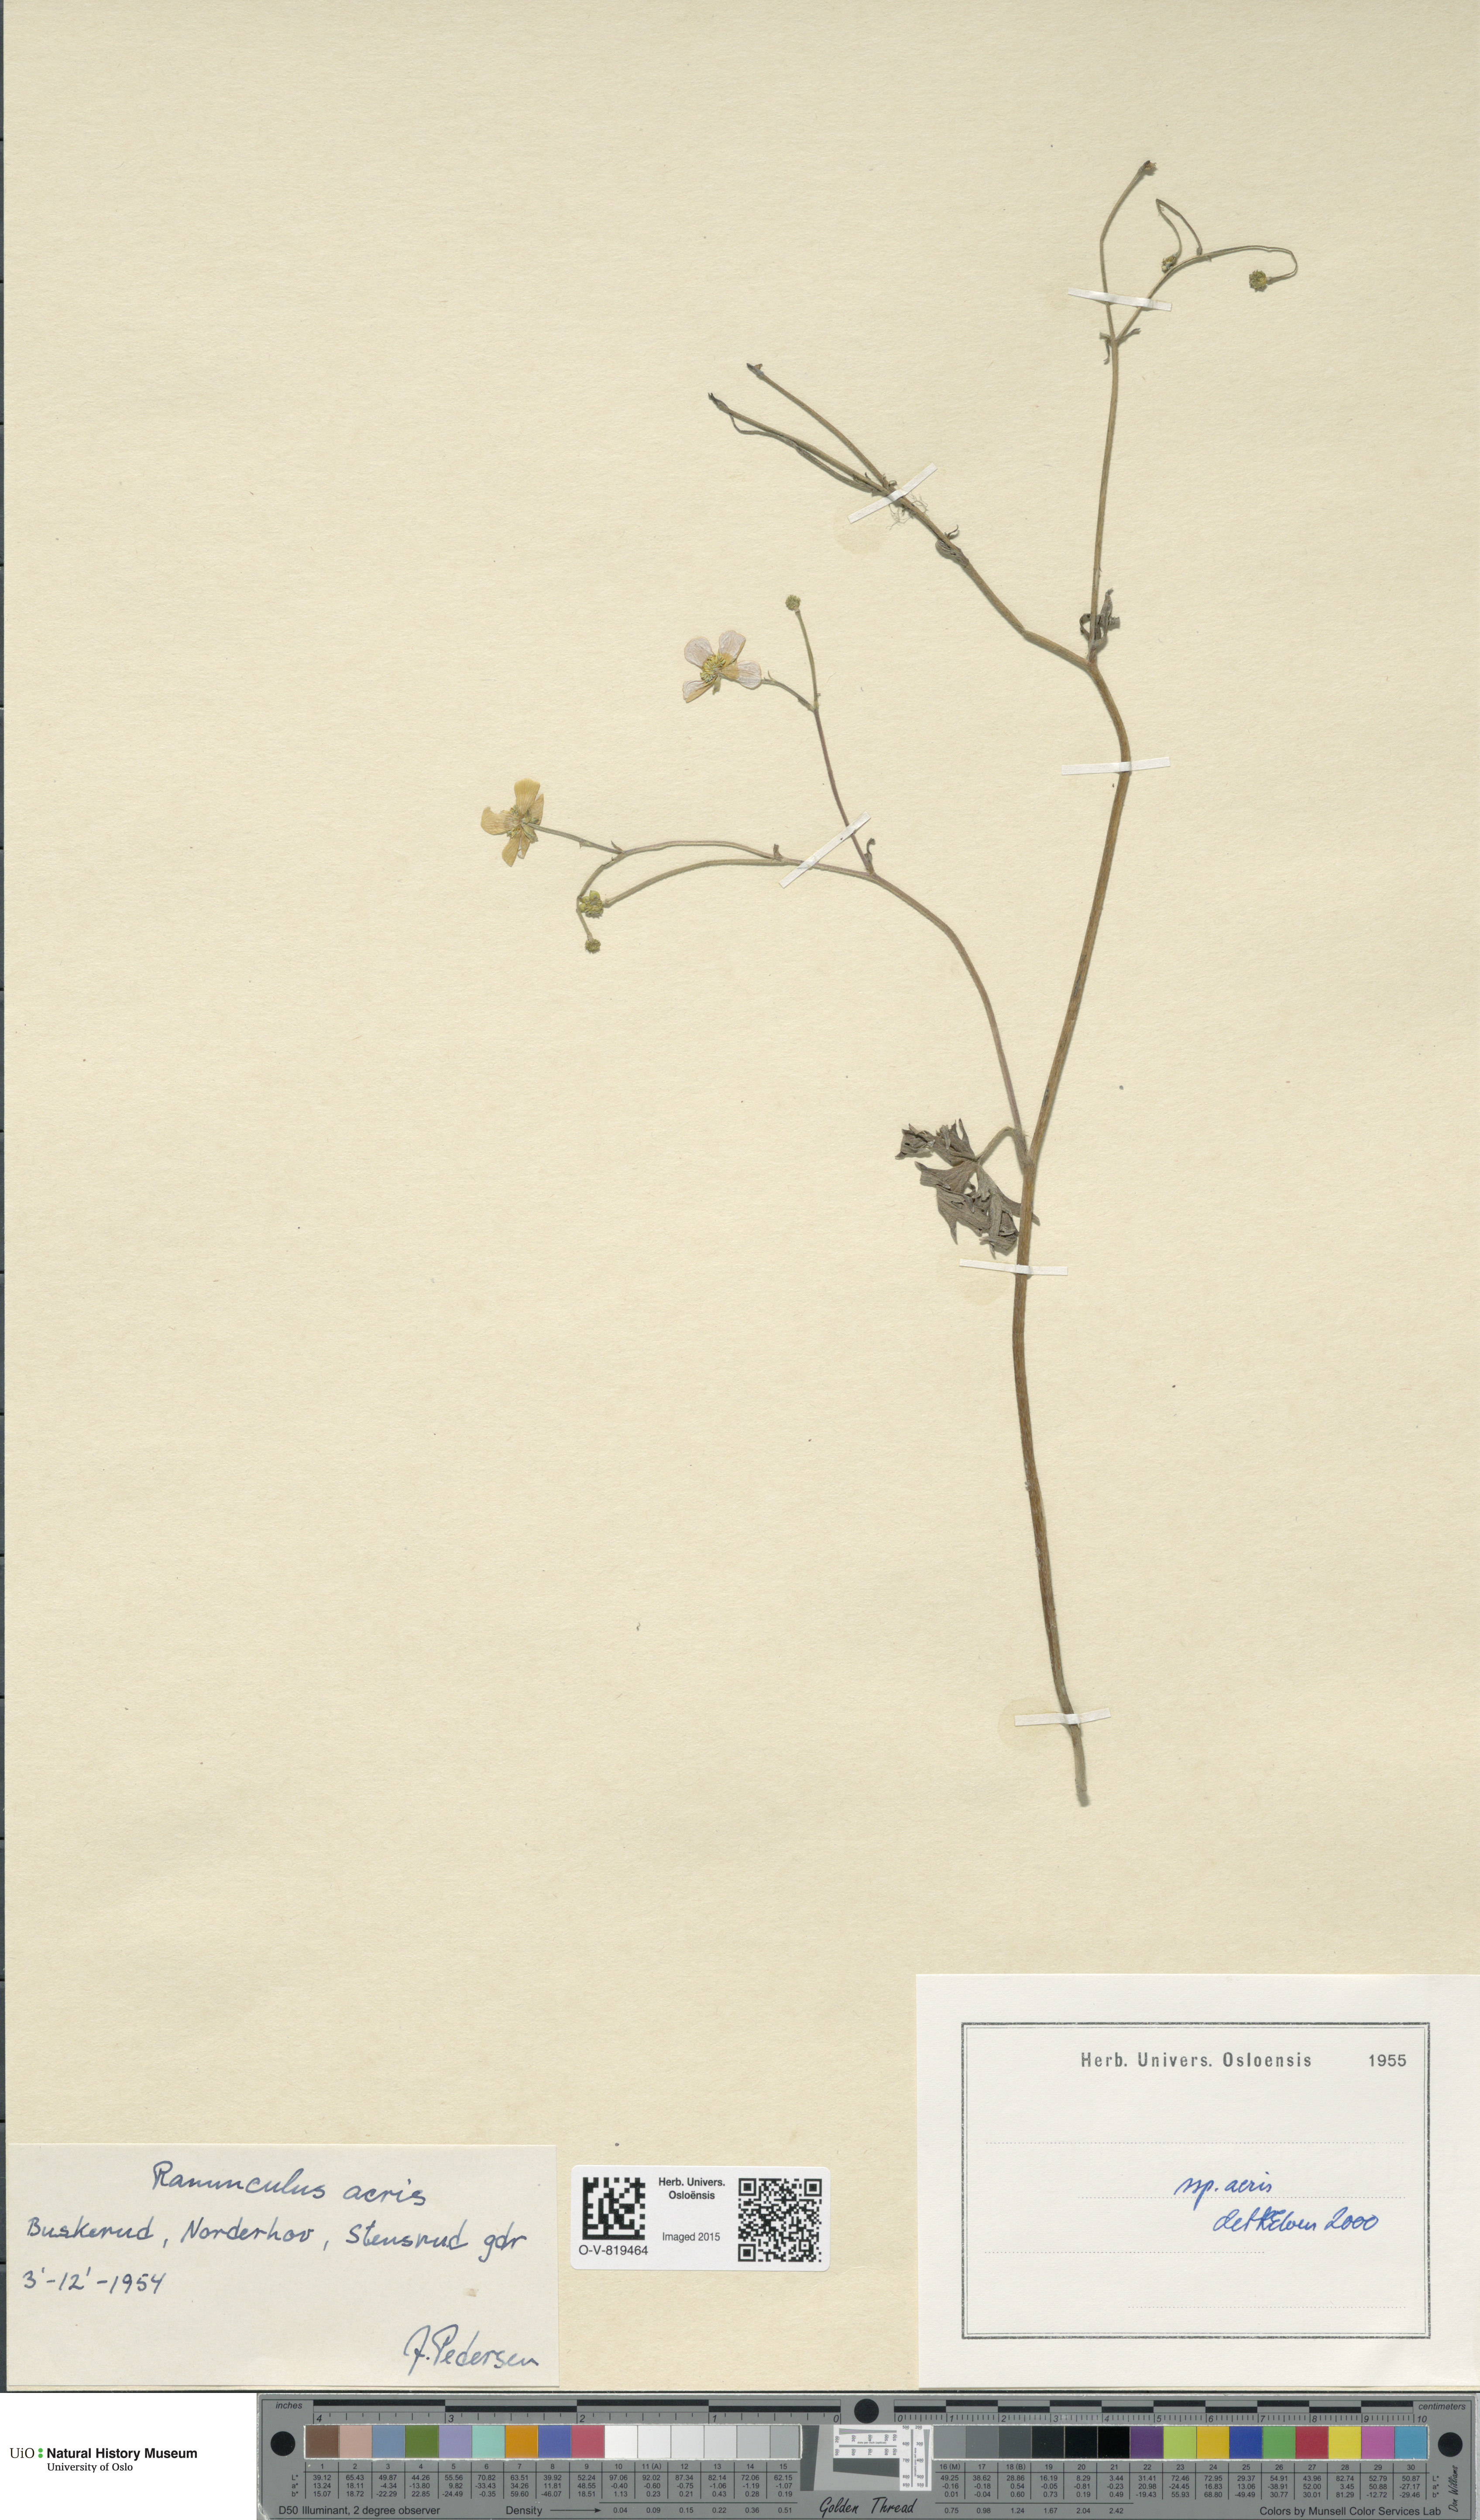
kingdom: Plantae
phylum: Tracheophyta
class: Magnoliopsida
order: Ranunculales
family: Ranunculaceae
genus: Ranunculus
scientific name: Ranunculus acris
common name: Meadow buttercup
